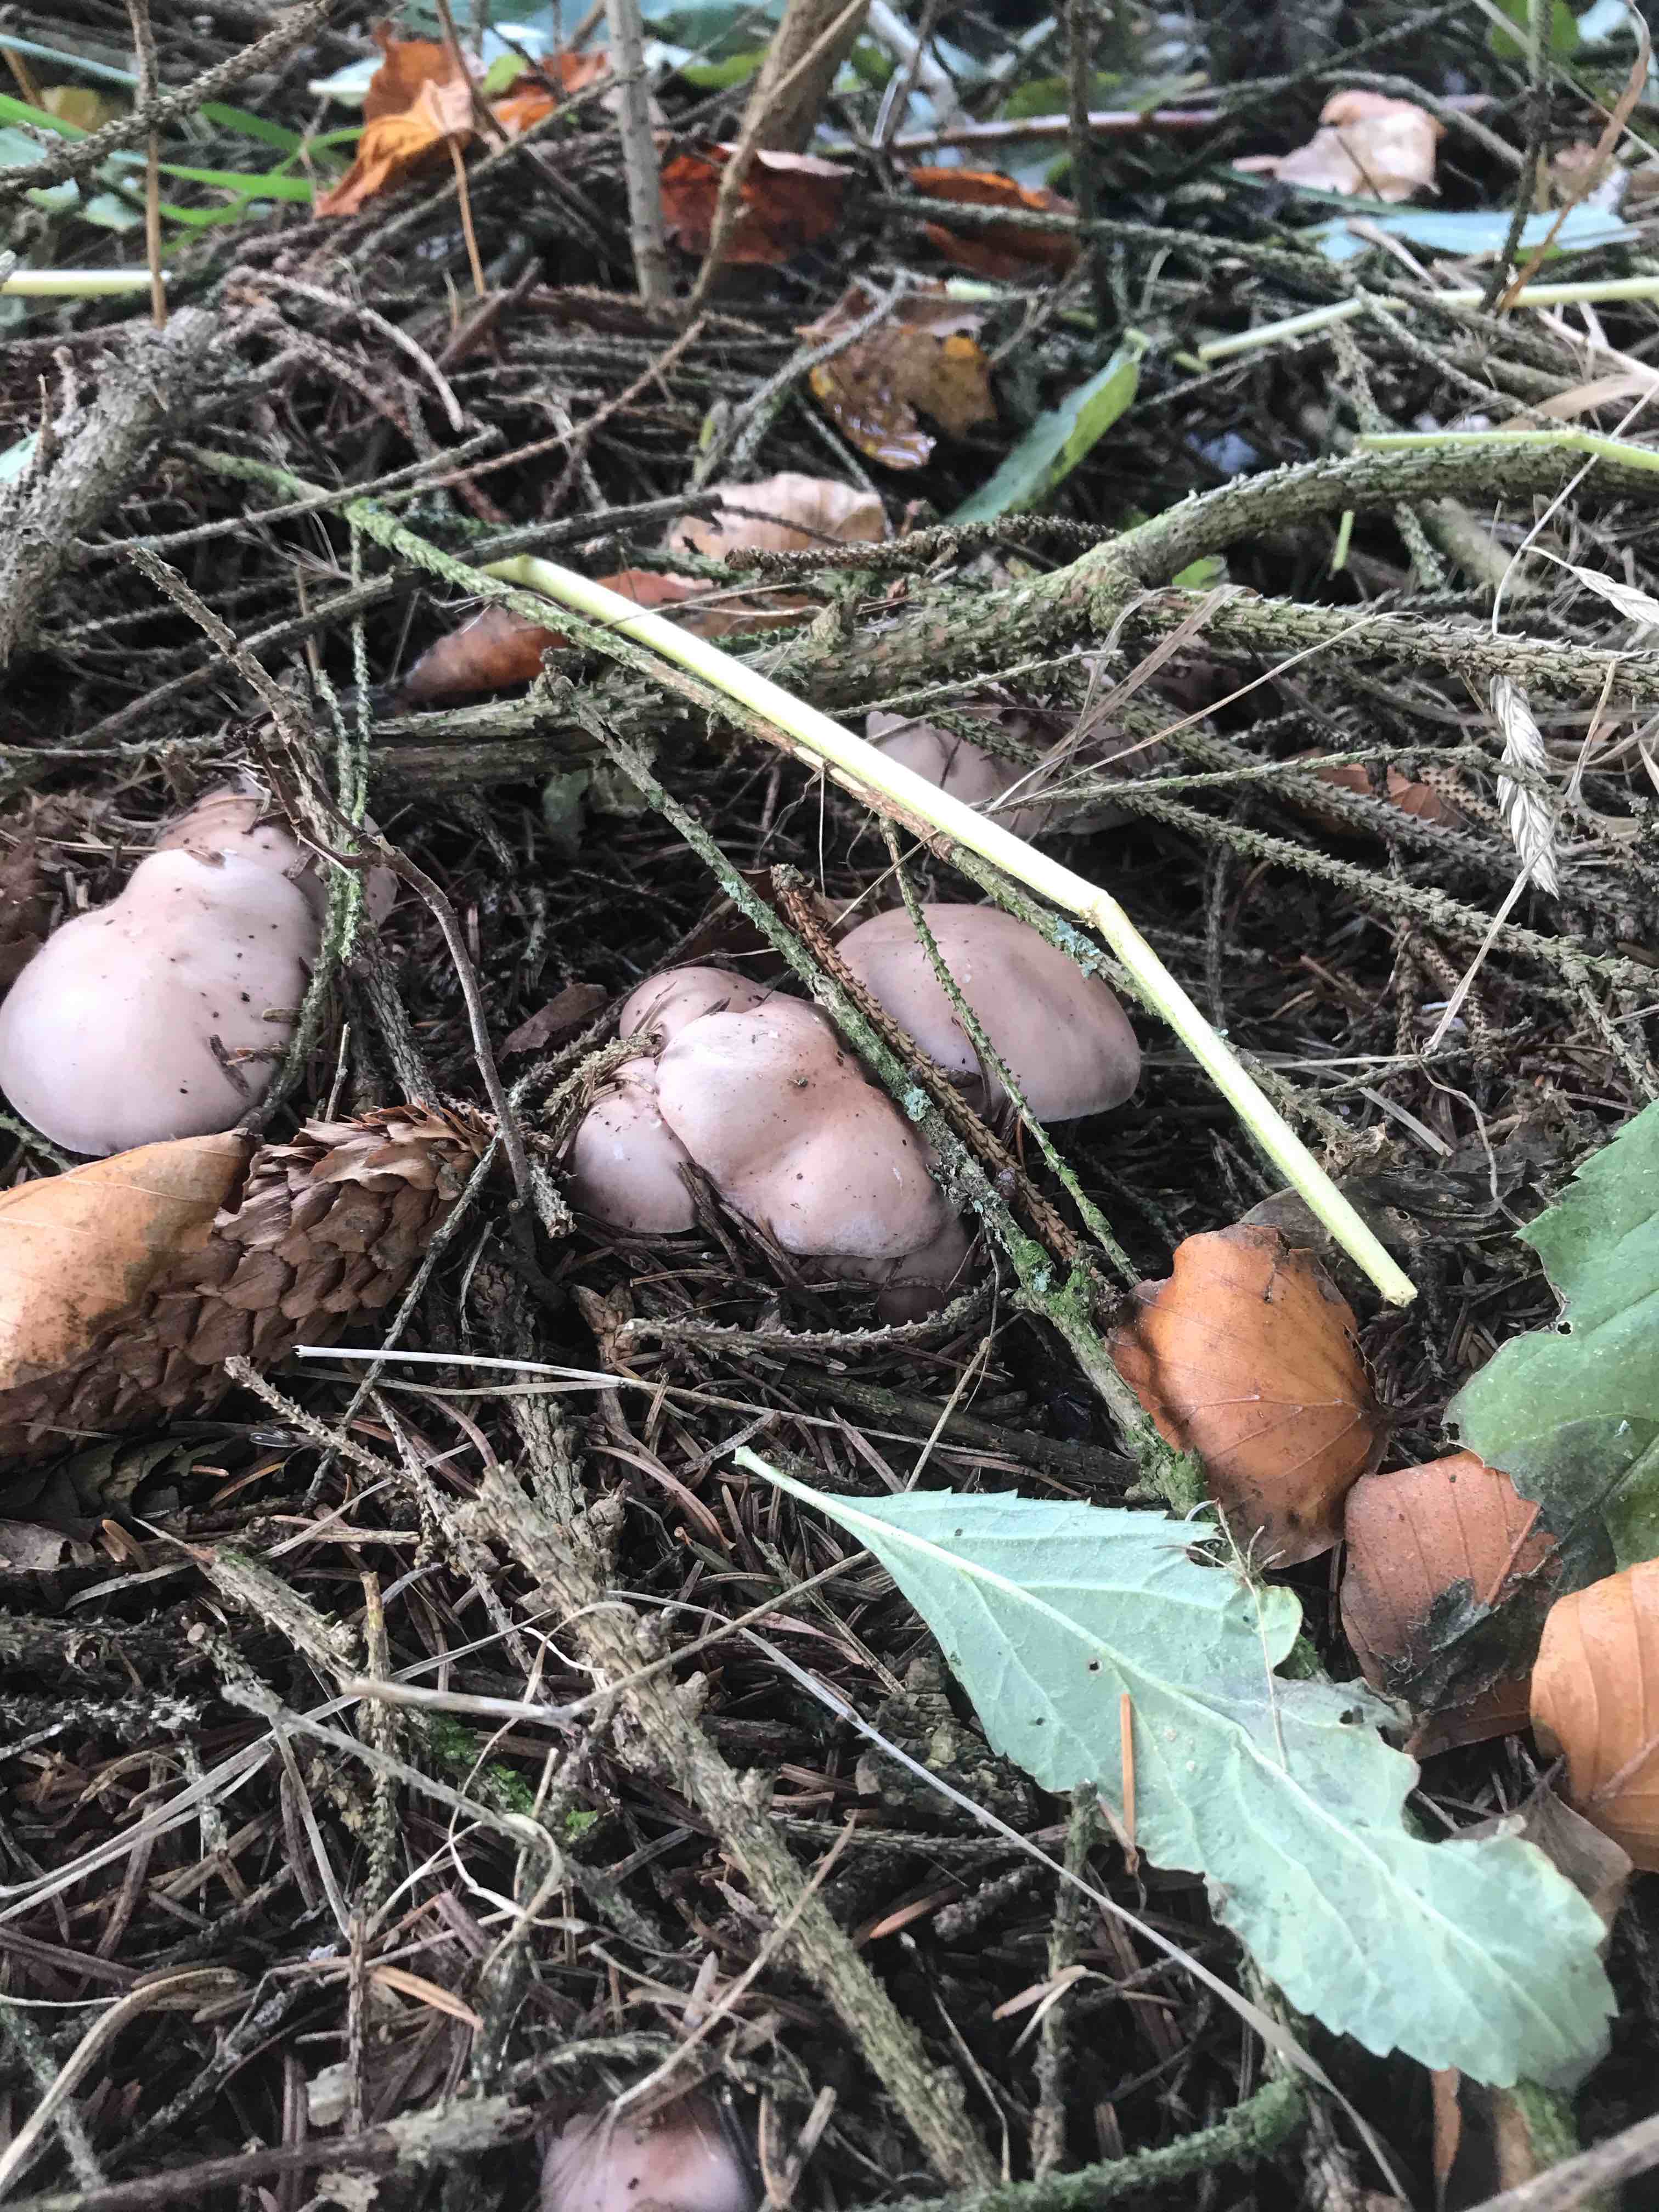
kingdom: Fungi
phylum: Basidiomycota
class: Agaricomycetes
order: Agaricales
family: Tricholomataceae
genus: Lepista
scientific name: Lepista nuda
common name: violet hekseringshat
